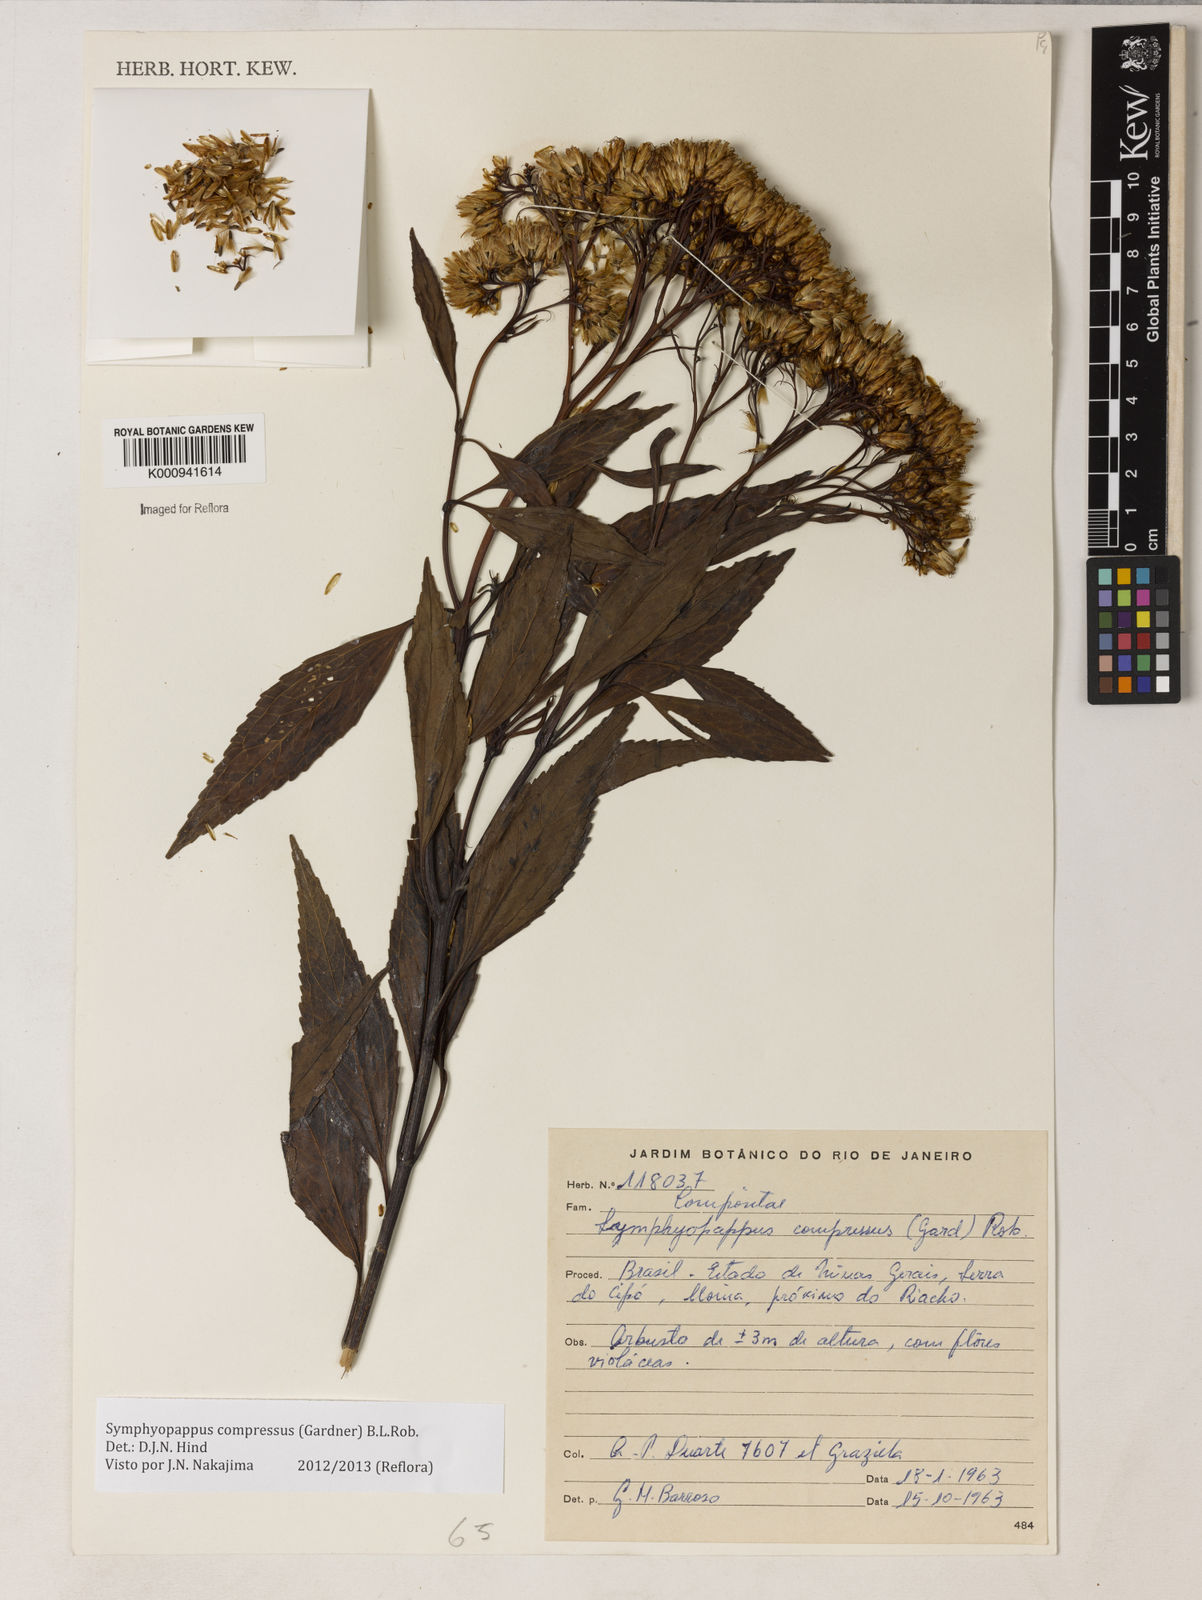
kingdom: Plantae
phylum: Tracheophyta
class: Magnoliopsida
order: Asterales
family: Asteraceae
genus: Symphyopappus
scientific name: Symphyopappus compressus
